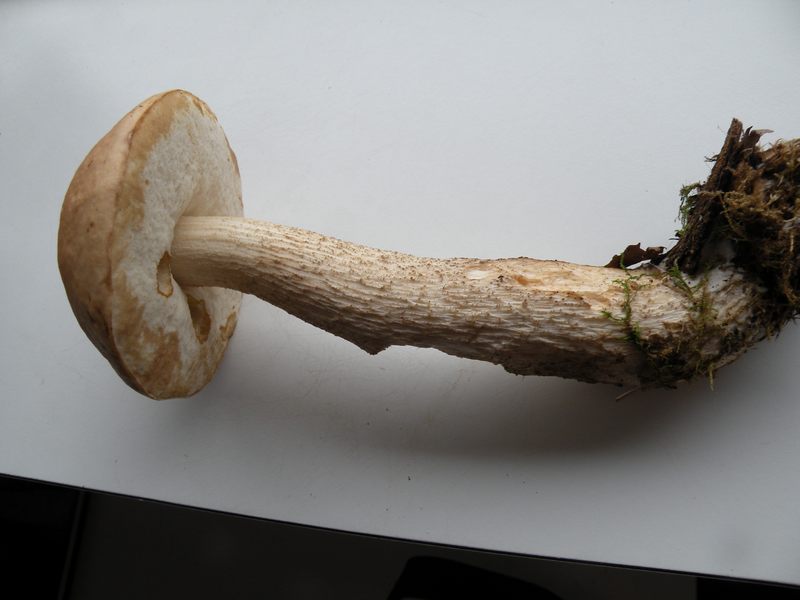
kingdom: Fungi
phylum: Basidiomycota
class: Agaricomycetes
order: Boletales
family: Boletaceae
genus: Leccinum
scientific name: Leccinum cyaneobasileucum
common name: almindelig skælrørhat
